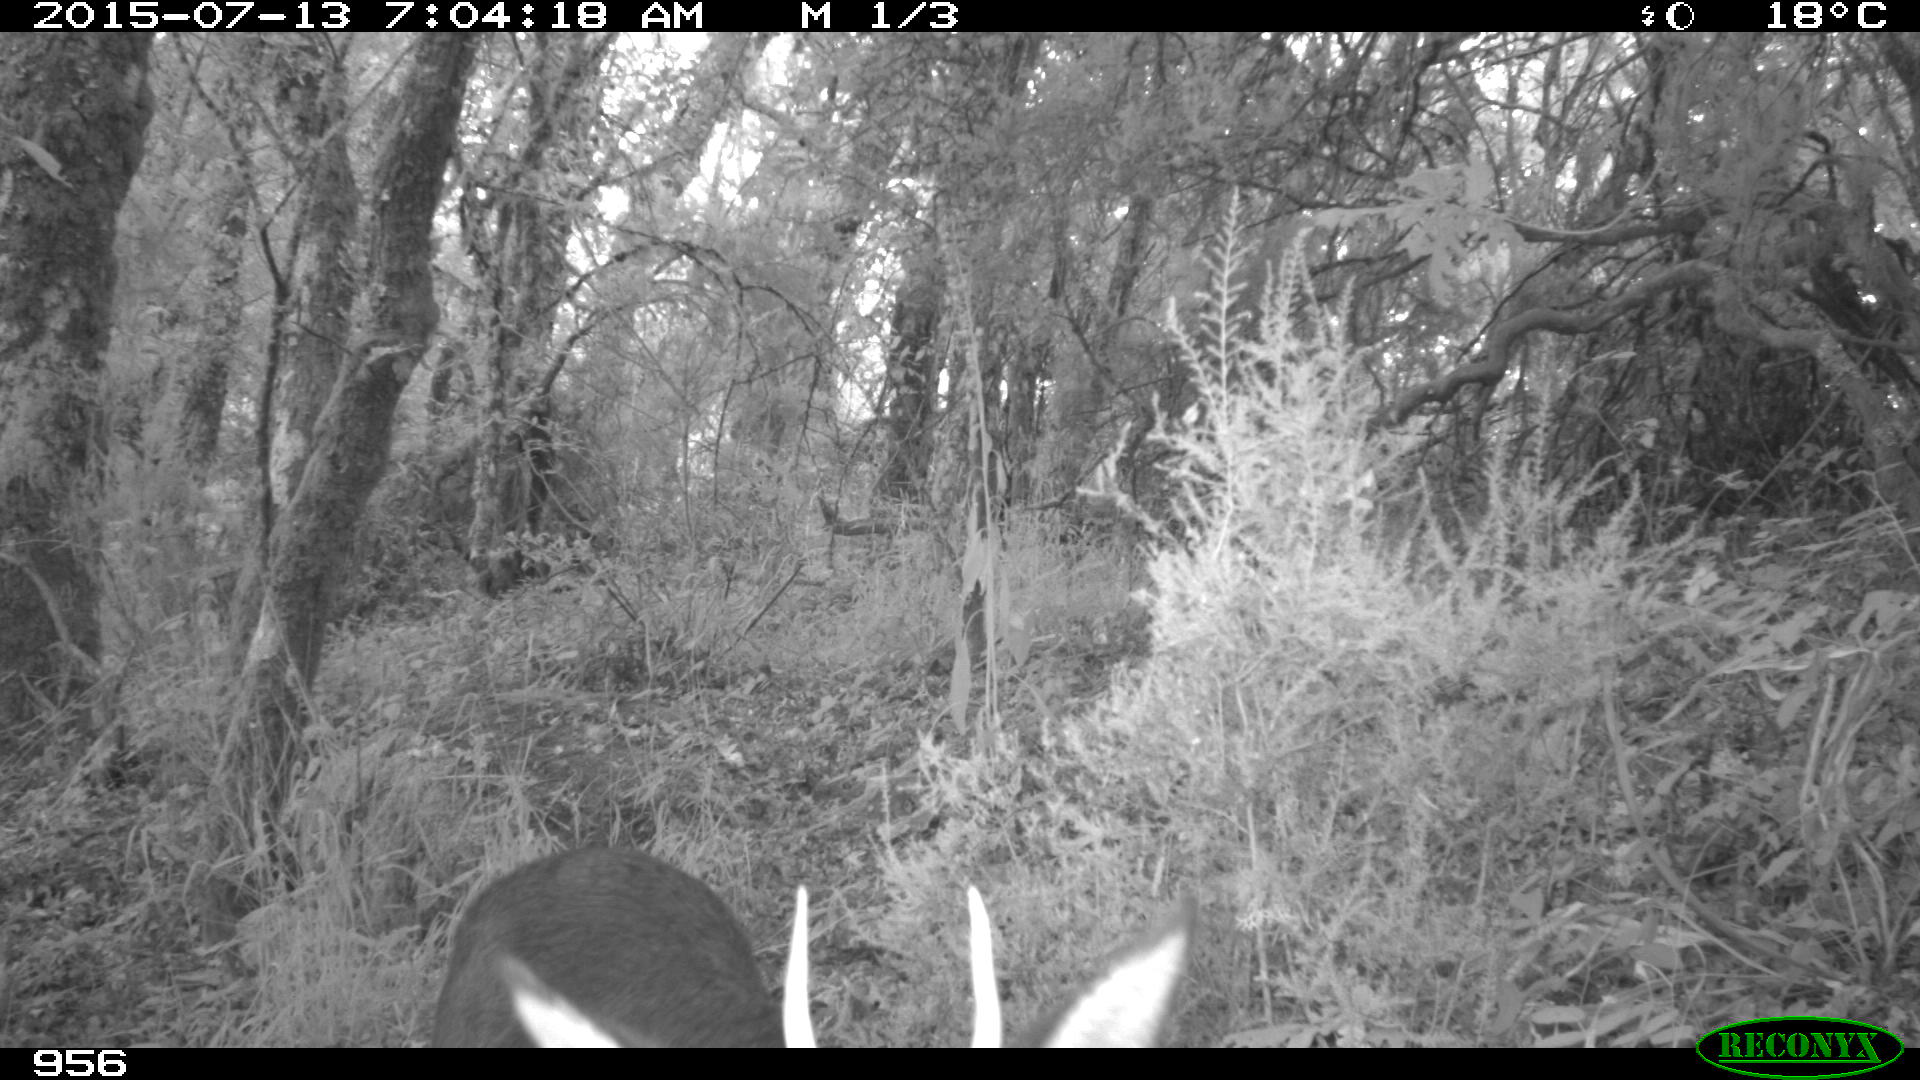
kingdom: Animalia
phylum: Chordata
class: Mammalia
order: Artiodactyla
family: Cervidae
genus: Capreolus
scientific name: Capreolus capreolus
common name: Western roe deer
